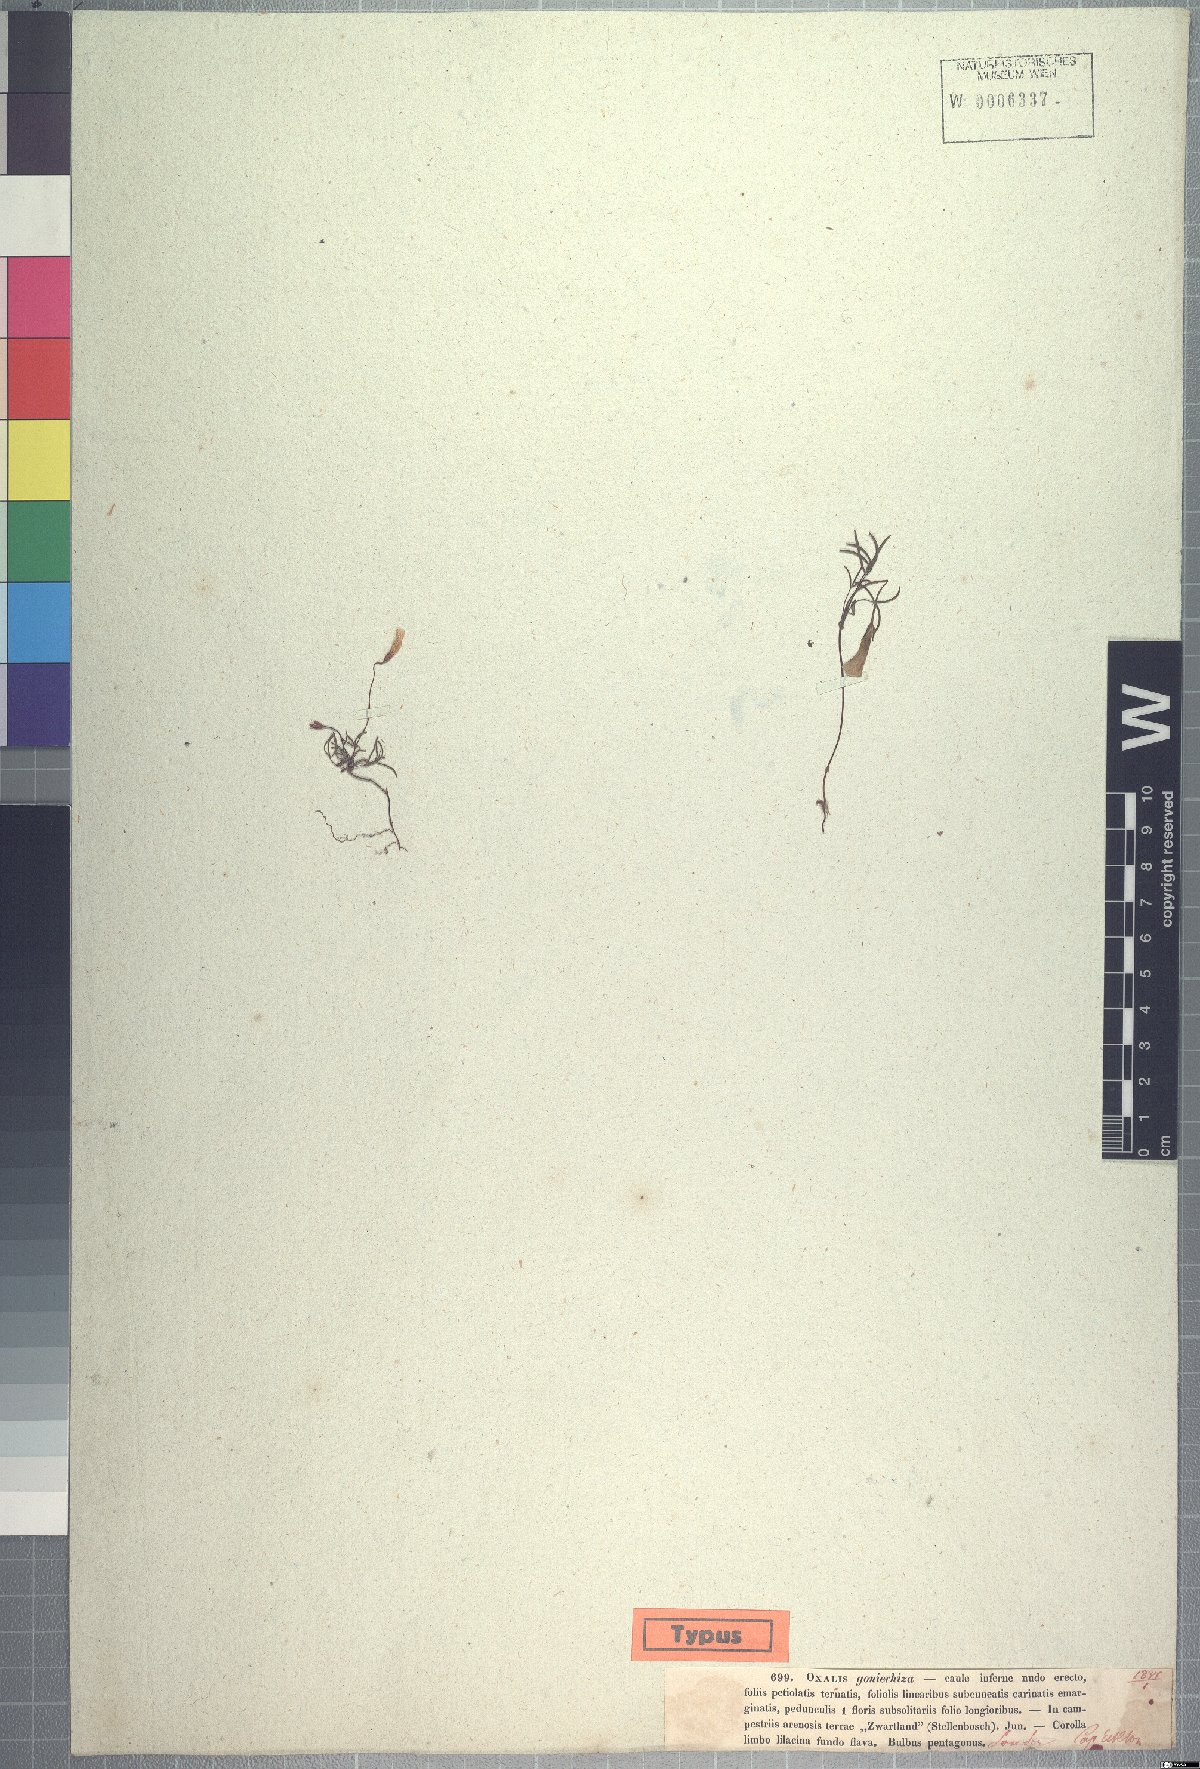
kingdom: Plantae
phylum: Tracheophyta
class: Magnoliopsida
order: Oxalidales
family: Oxalidaceae
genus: Oxalis
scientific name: Oxalis goniorhiza
